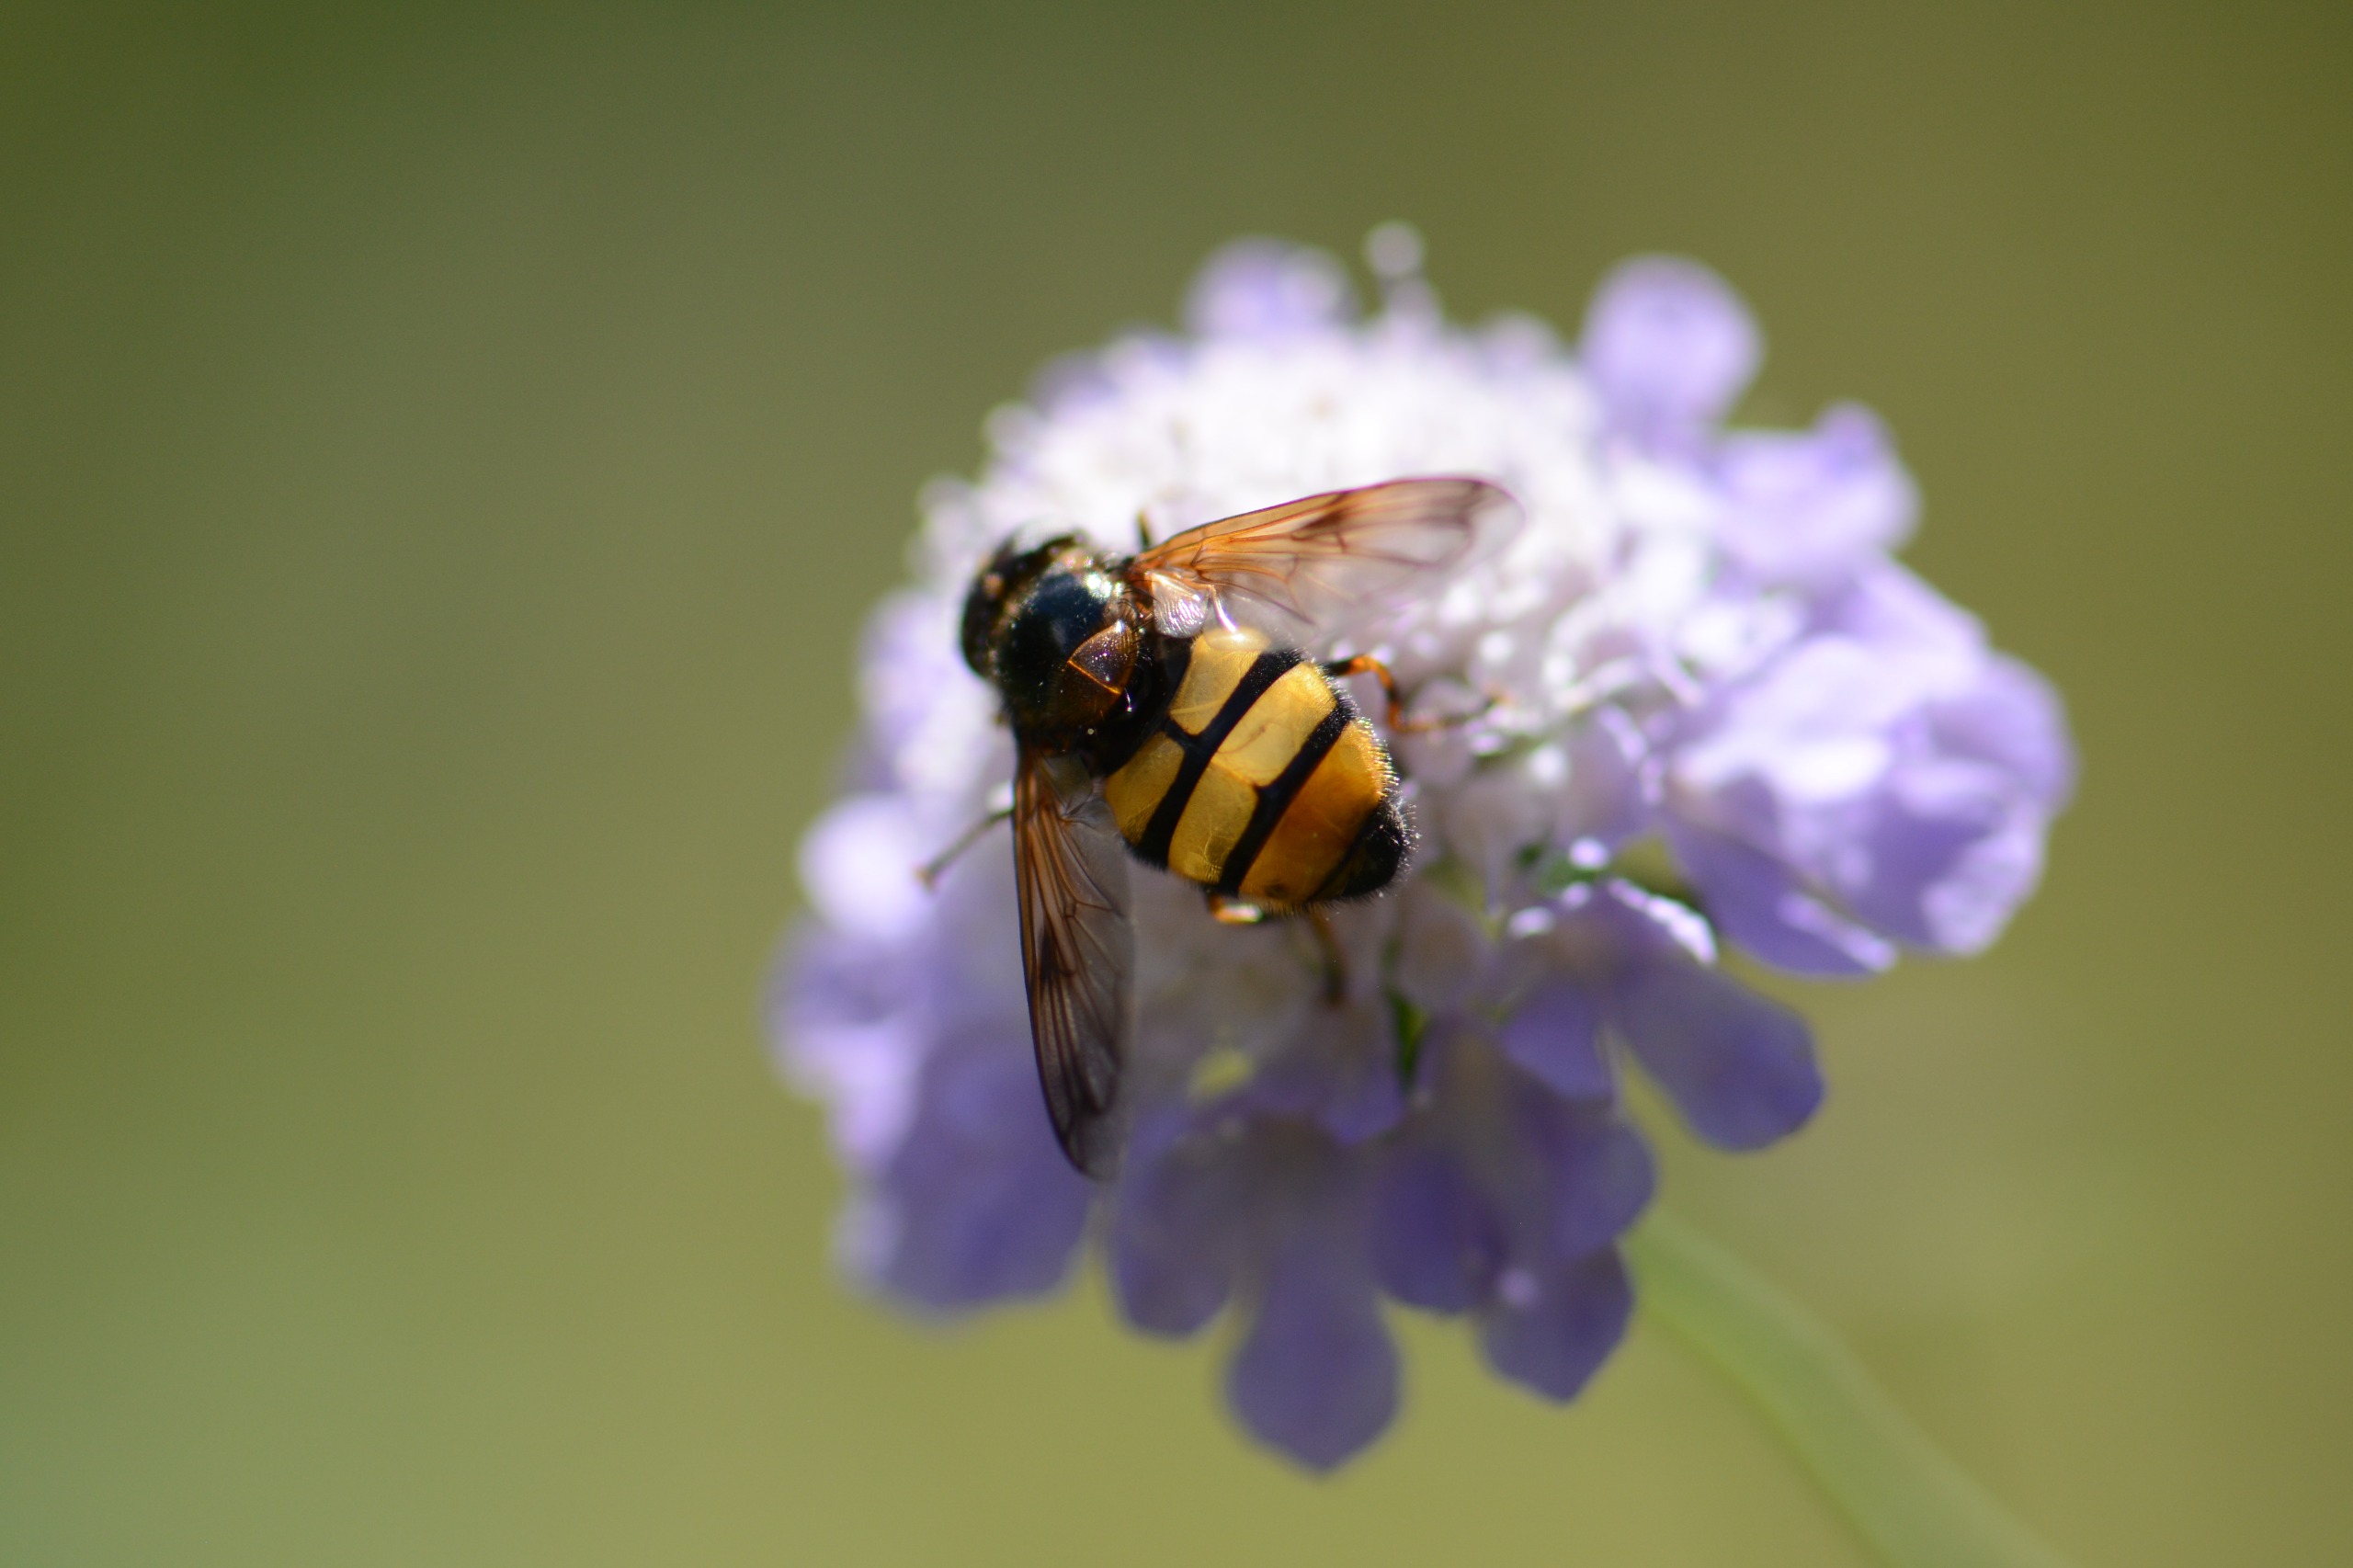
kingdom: Animalia
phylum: Arthropoda
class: Insecta
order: Diptera
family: Syrphidae
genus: Volucella
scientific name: Volucella inanis
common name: Gul humlesvirreflue
